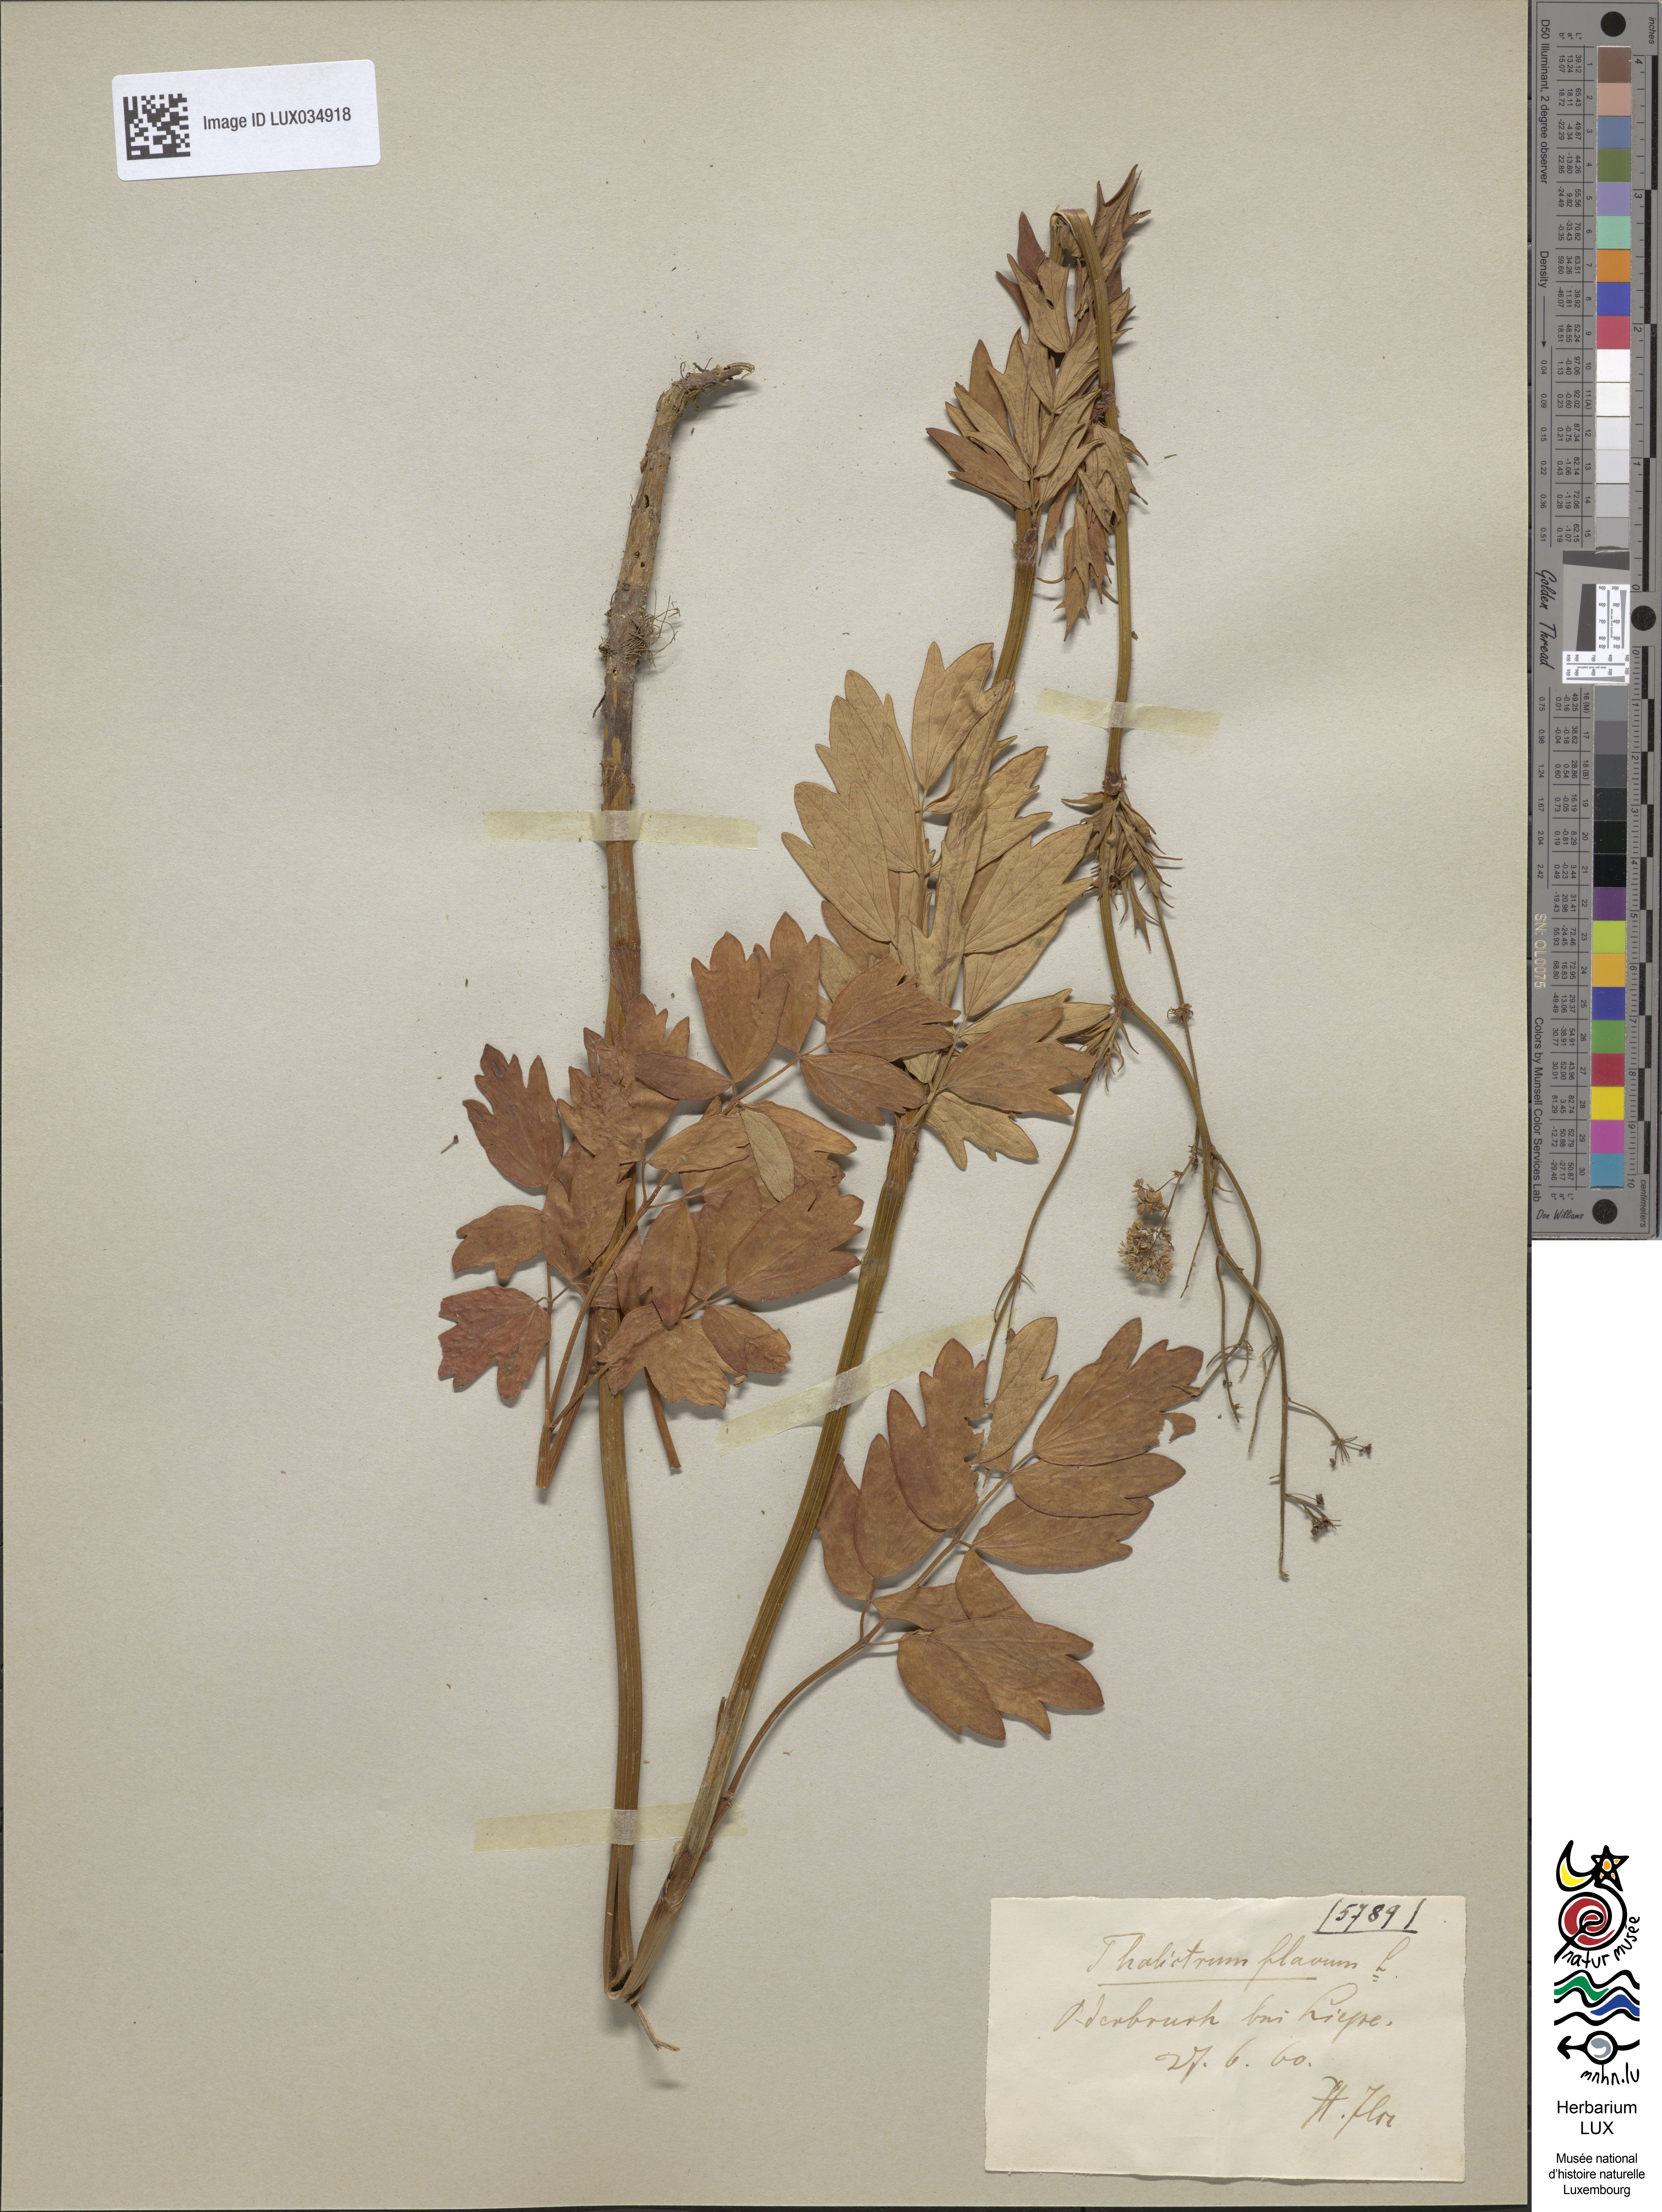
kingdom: Plantae
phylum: Tracheophyta
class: Magnoliopsida
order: Ranunculales
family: Ranunculaceae
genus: Thalictrum
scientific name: Thalictrum flavum
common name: Common meadow-rue
